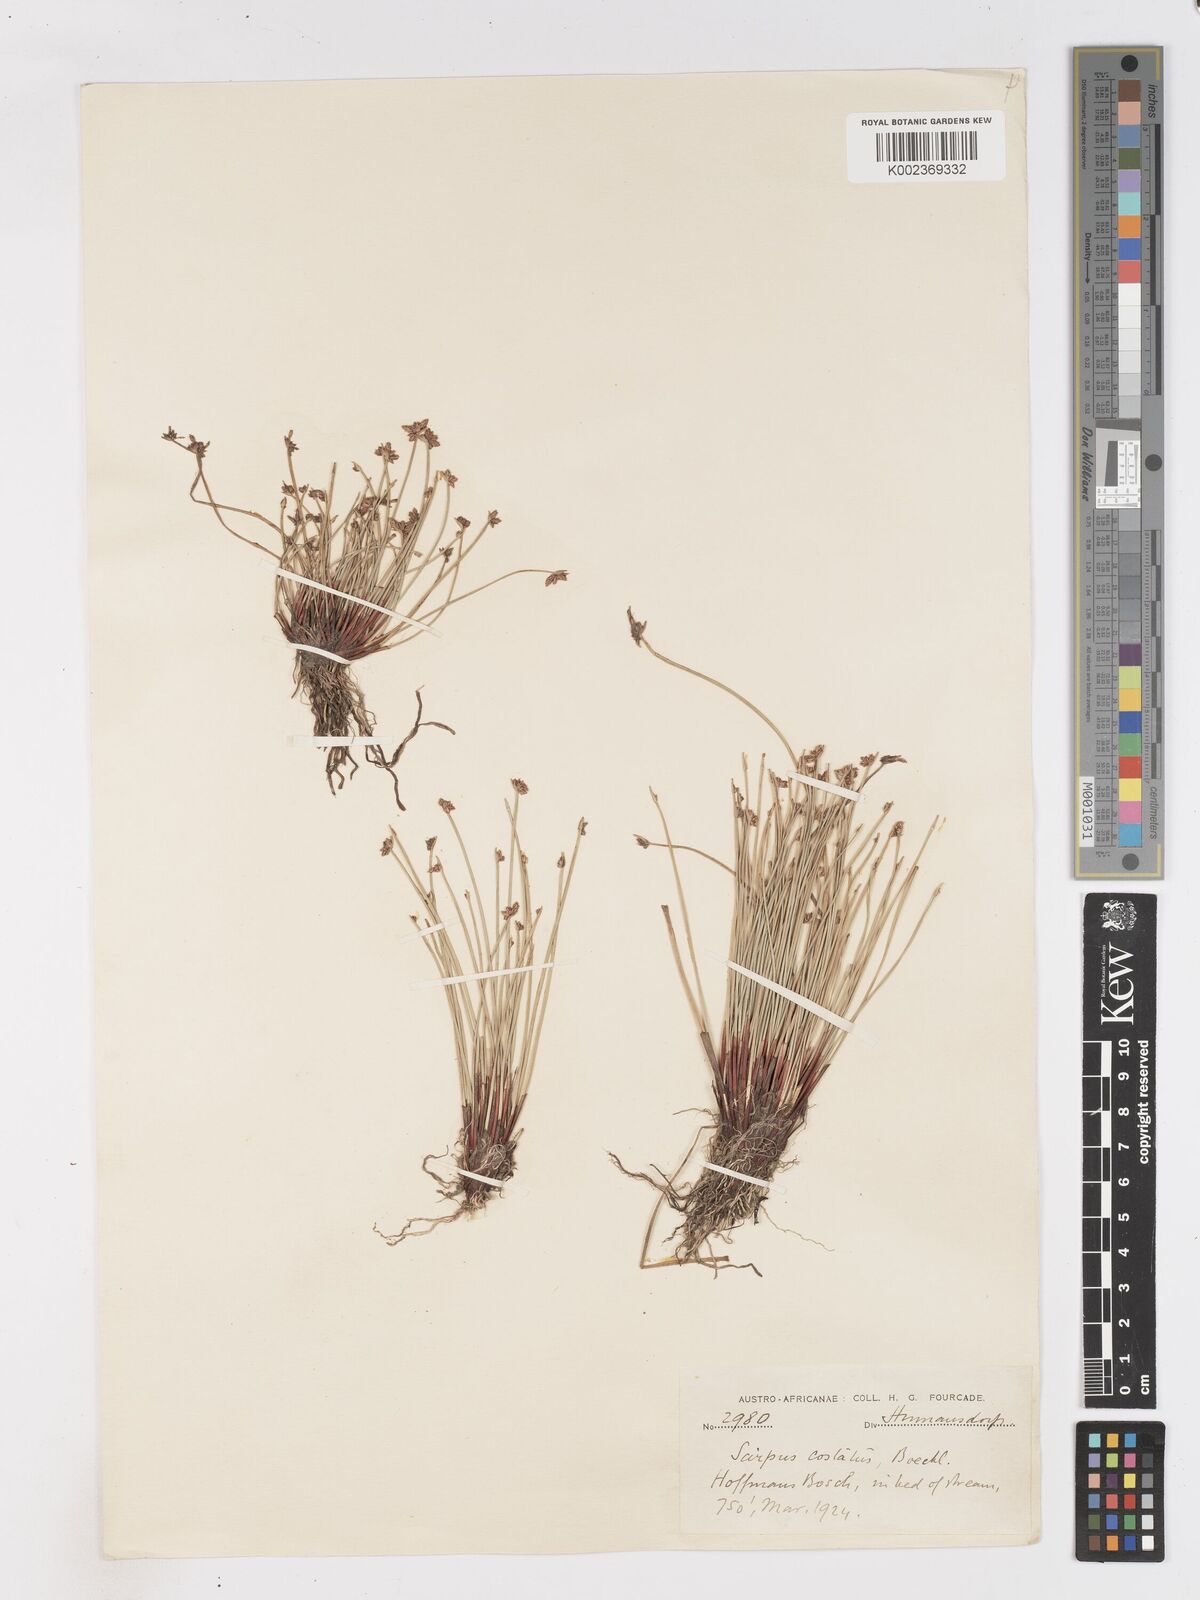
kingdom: Plantae
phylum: Tracheophyta
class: Liliopsida
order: Poales
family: Cyperaceae
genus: Isolepis
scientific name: Isolepis costata
